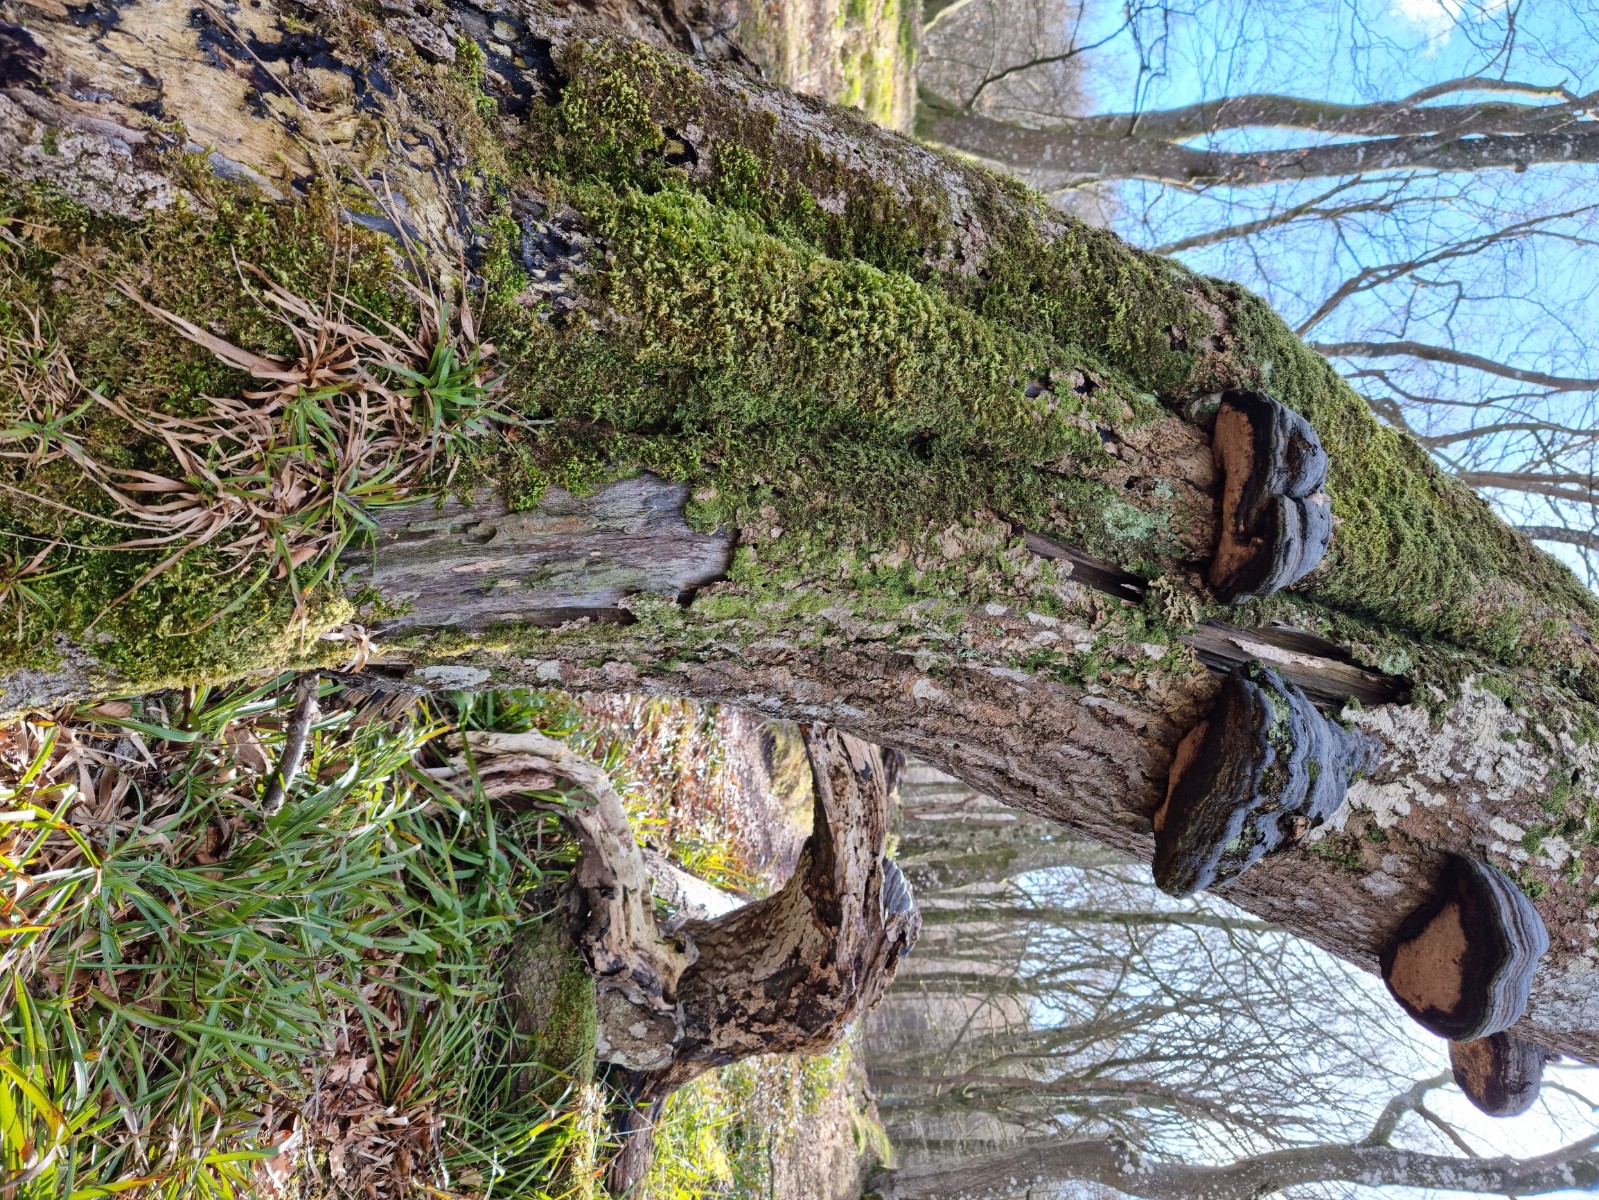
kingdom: Fungi
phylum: Ascomycota
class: Lecanoromycetes
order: Peltigerales
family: Lobariaceae
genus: Lobaria
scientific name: Lobaria pulmonaria
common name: almindelig lungelav
